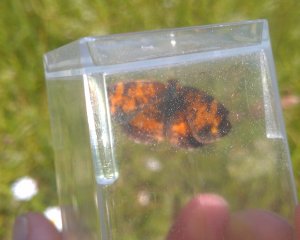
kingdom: Animalia
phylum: Arthropoda
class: Insecta
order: Lepidoptera
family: Nymphalidae
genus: Phyciodes
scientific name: Phyciodes tharos
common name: Northern Crescent
